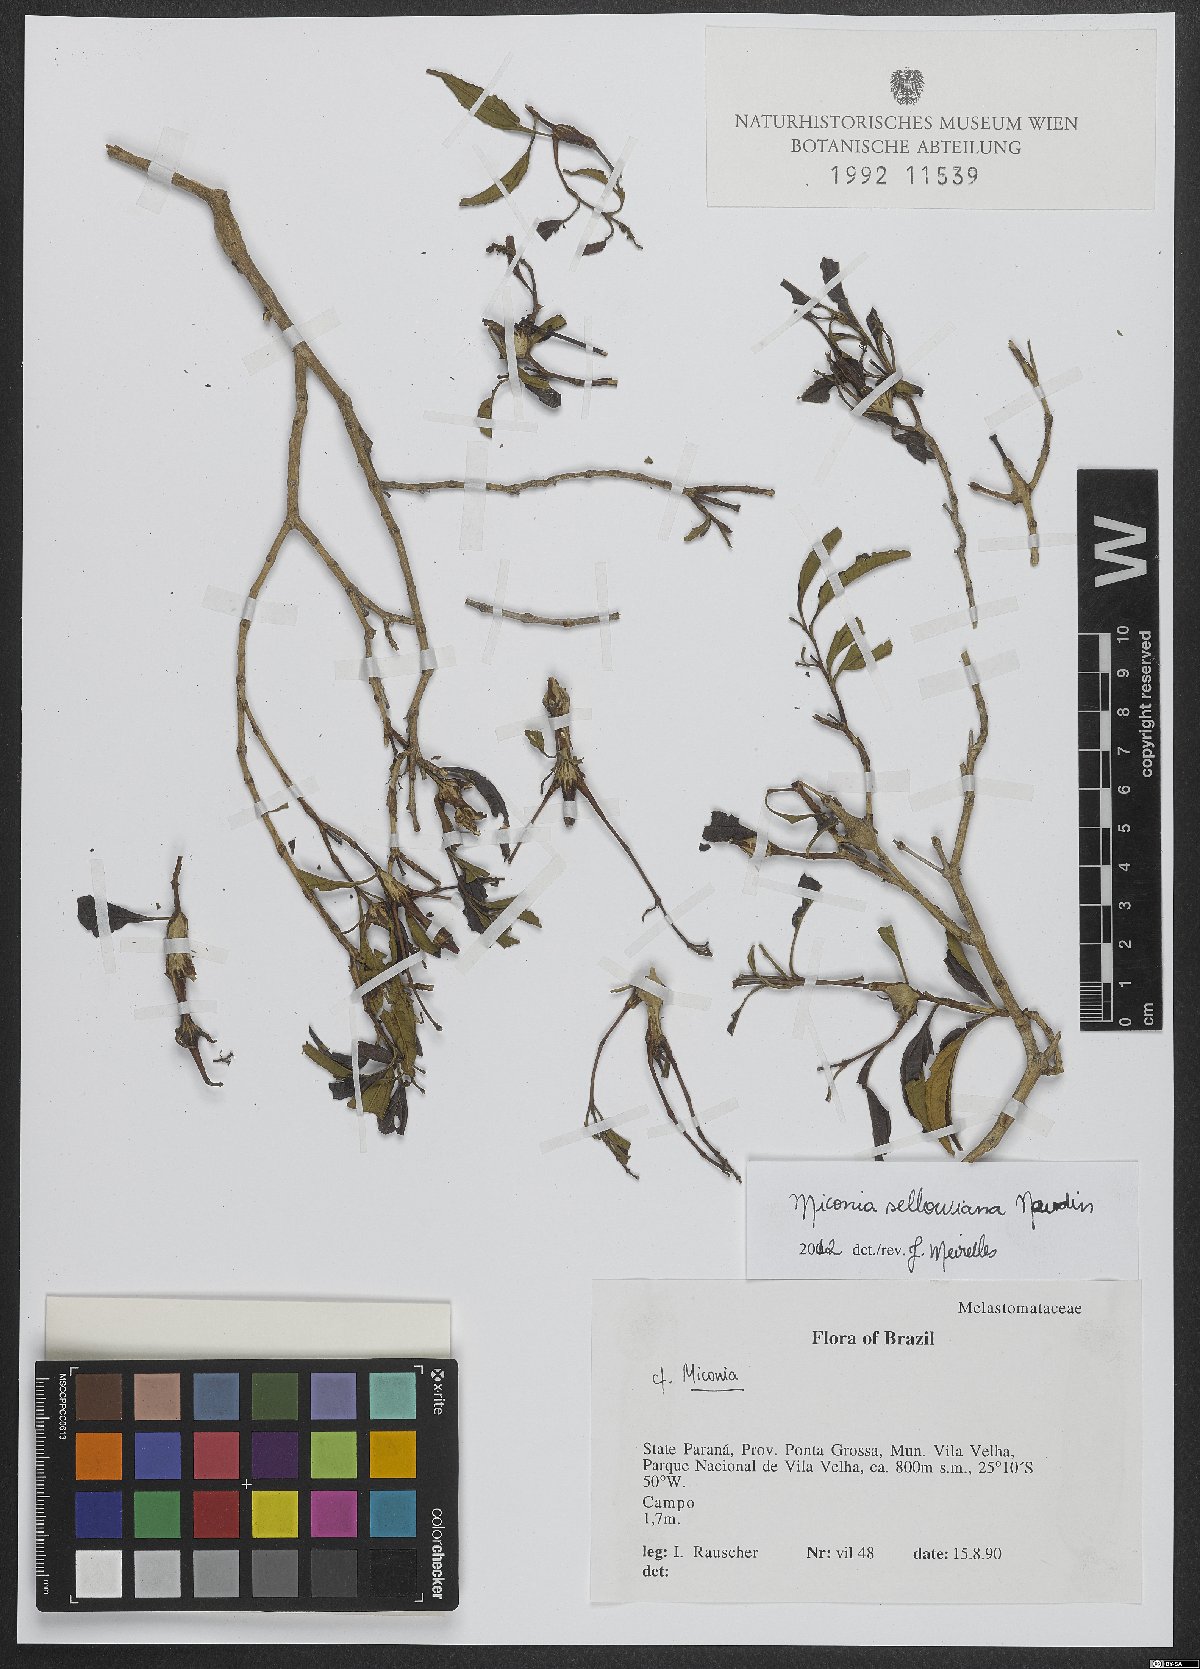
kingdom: Plantae
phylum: Tracheophyta
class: Magnoliopsida
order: Myrtales
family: Melastomataceae
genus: Miconia
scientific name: Miconia sellowiana
